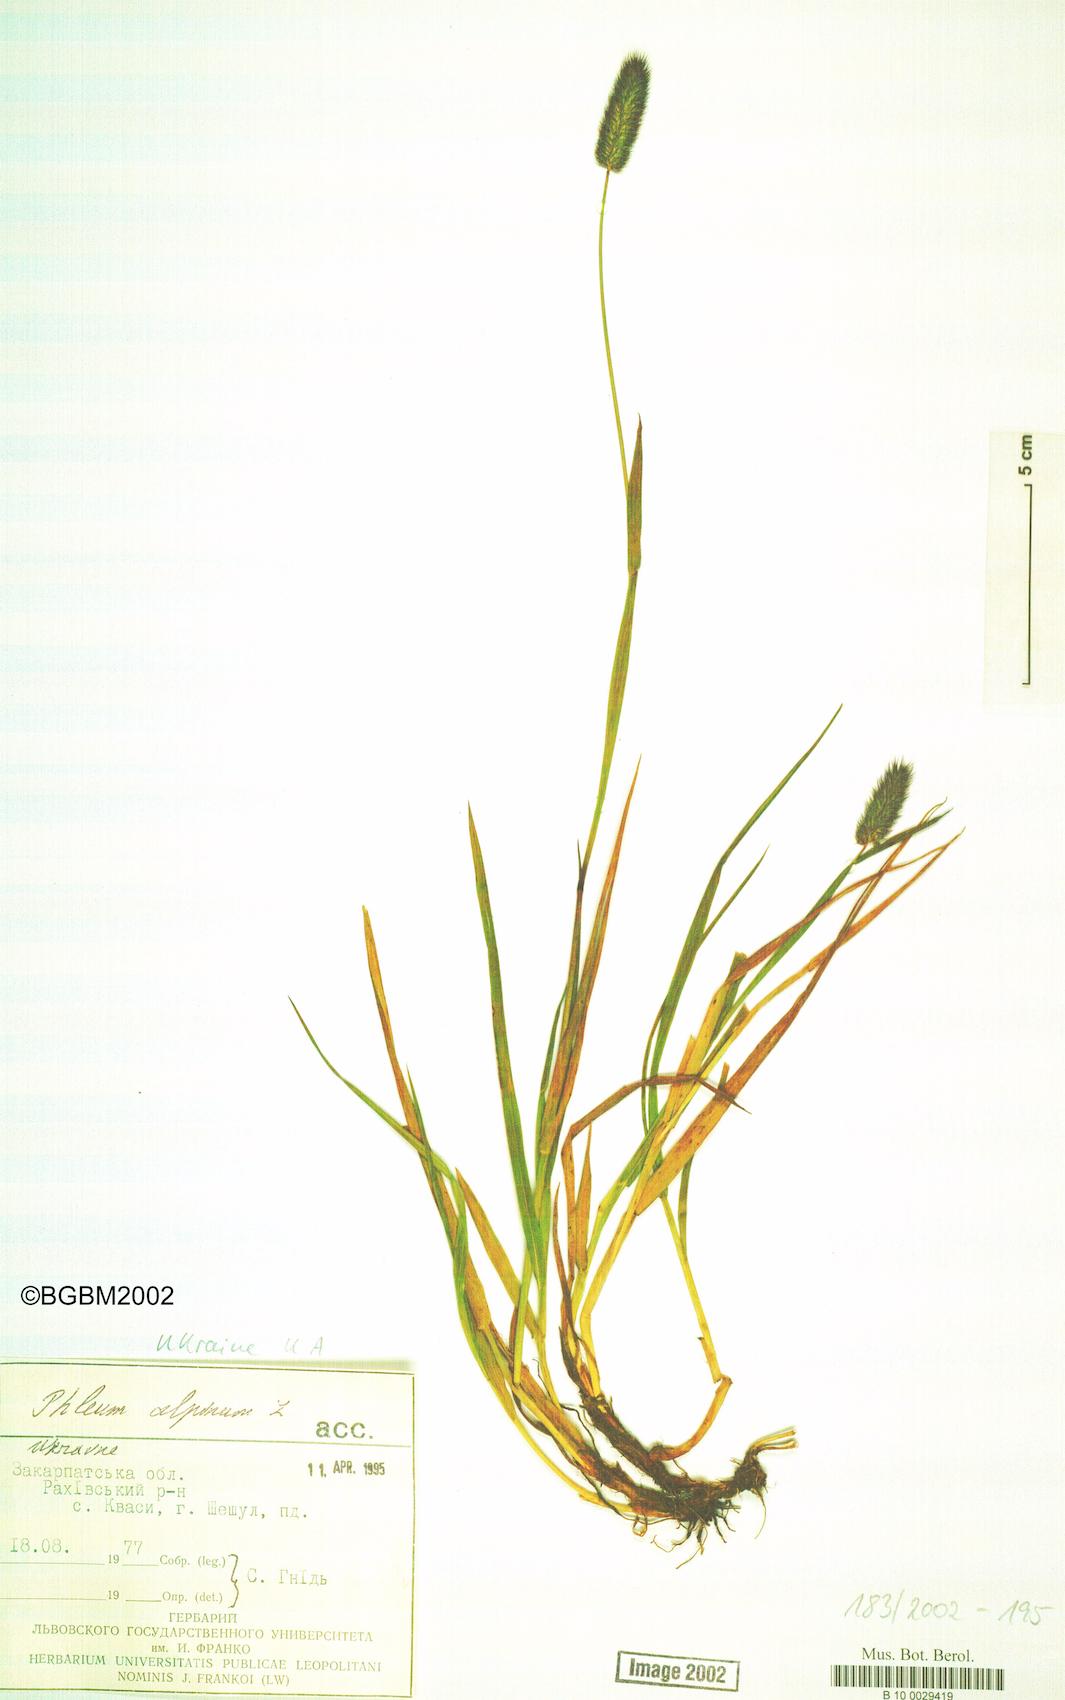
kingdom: Plantae
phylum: Tracheophyta
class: Liliopsida
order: Poales
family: Poaceae
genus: Phleum
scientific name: Phleum alpinum
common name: Alpine cat's-tail
